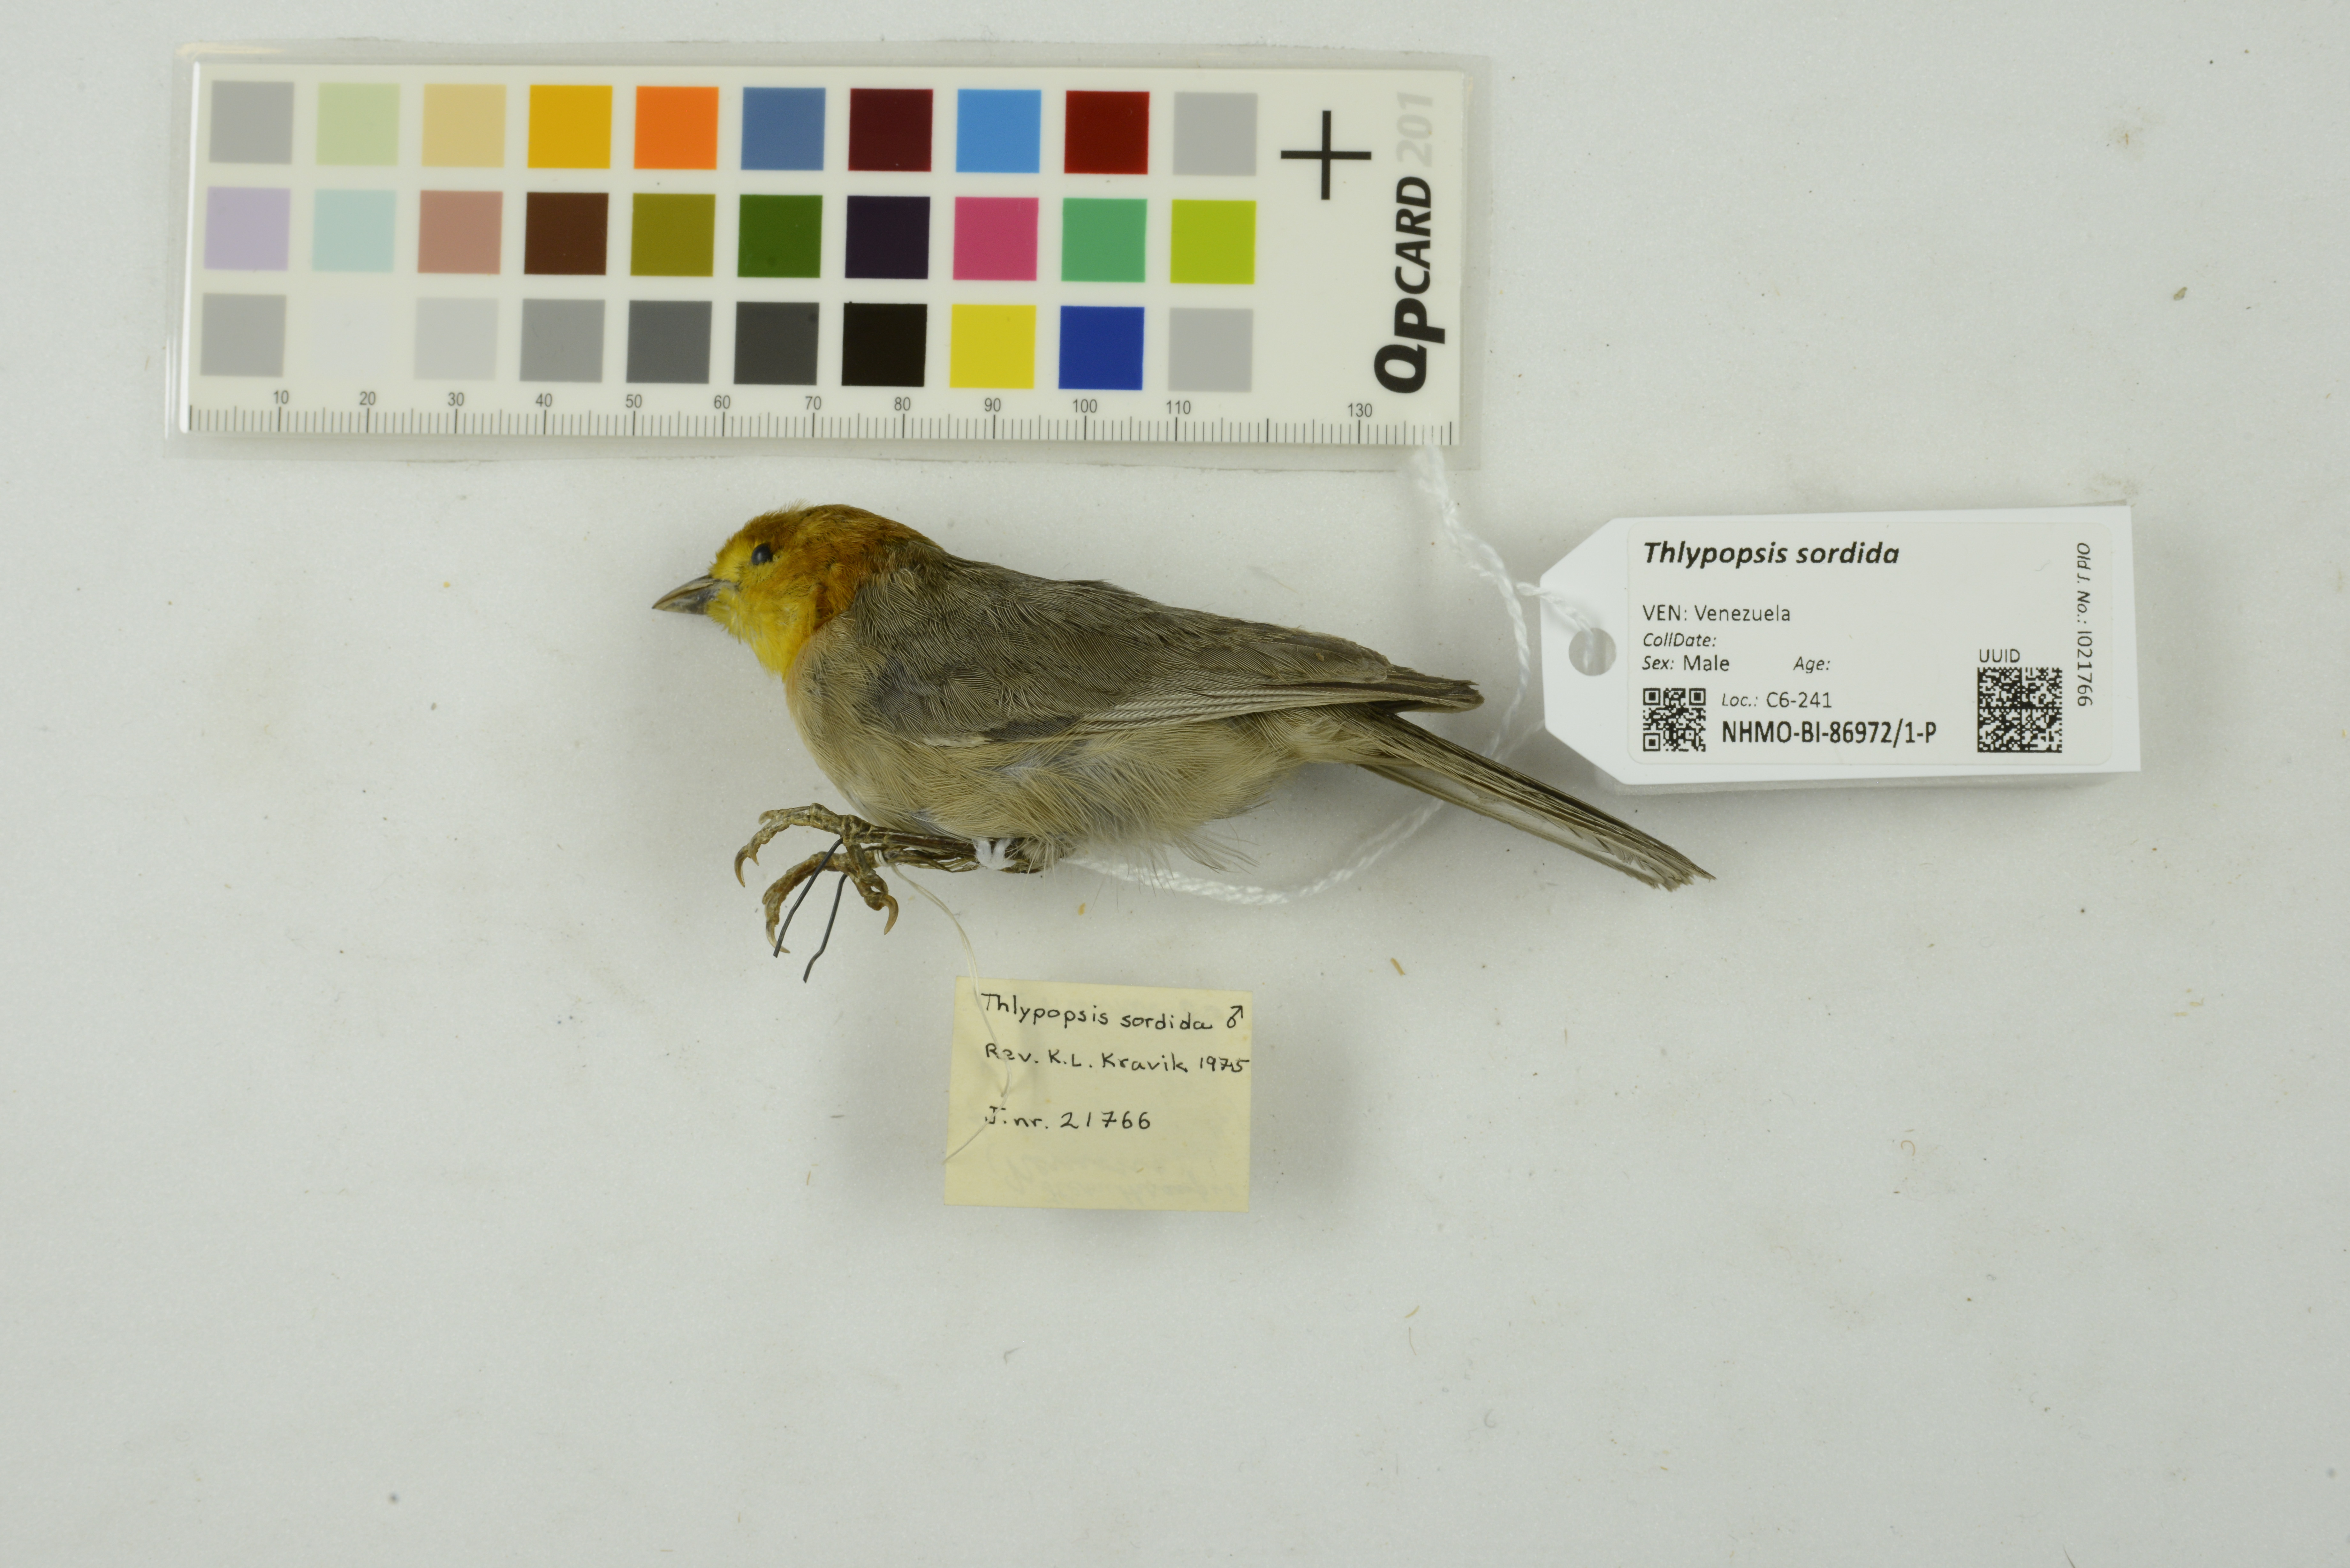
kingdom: Animalia
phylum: Chordata
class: Aves
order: Passeriformes
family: Thraupidae
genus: Thlypopsis
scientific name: Thlypopsis sordida
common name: Orange-headed tanager
